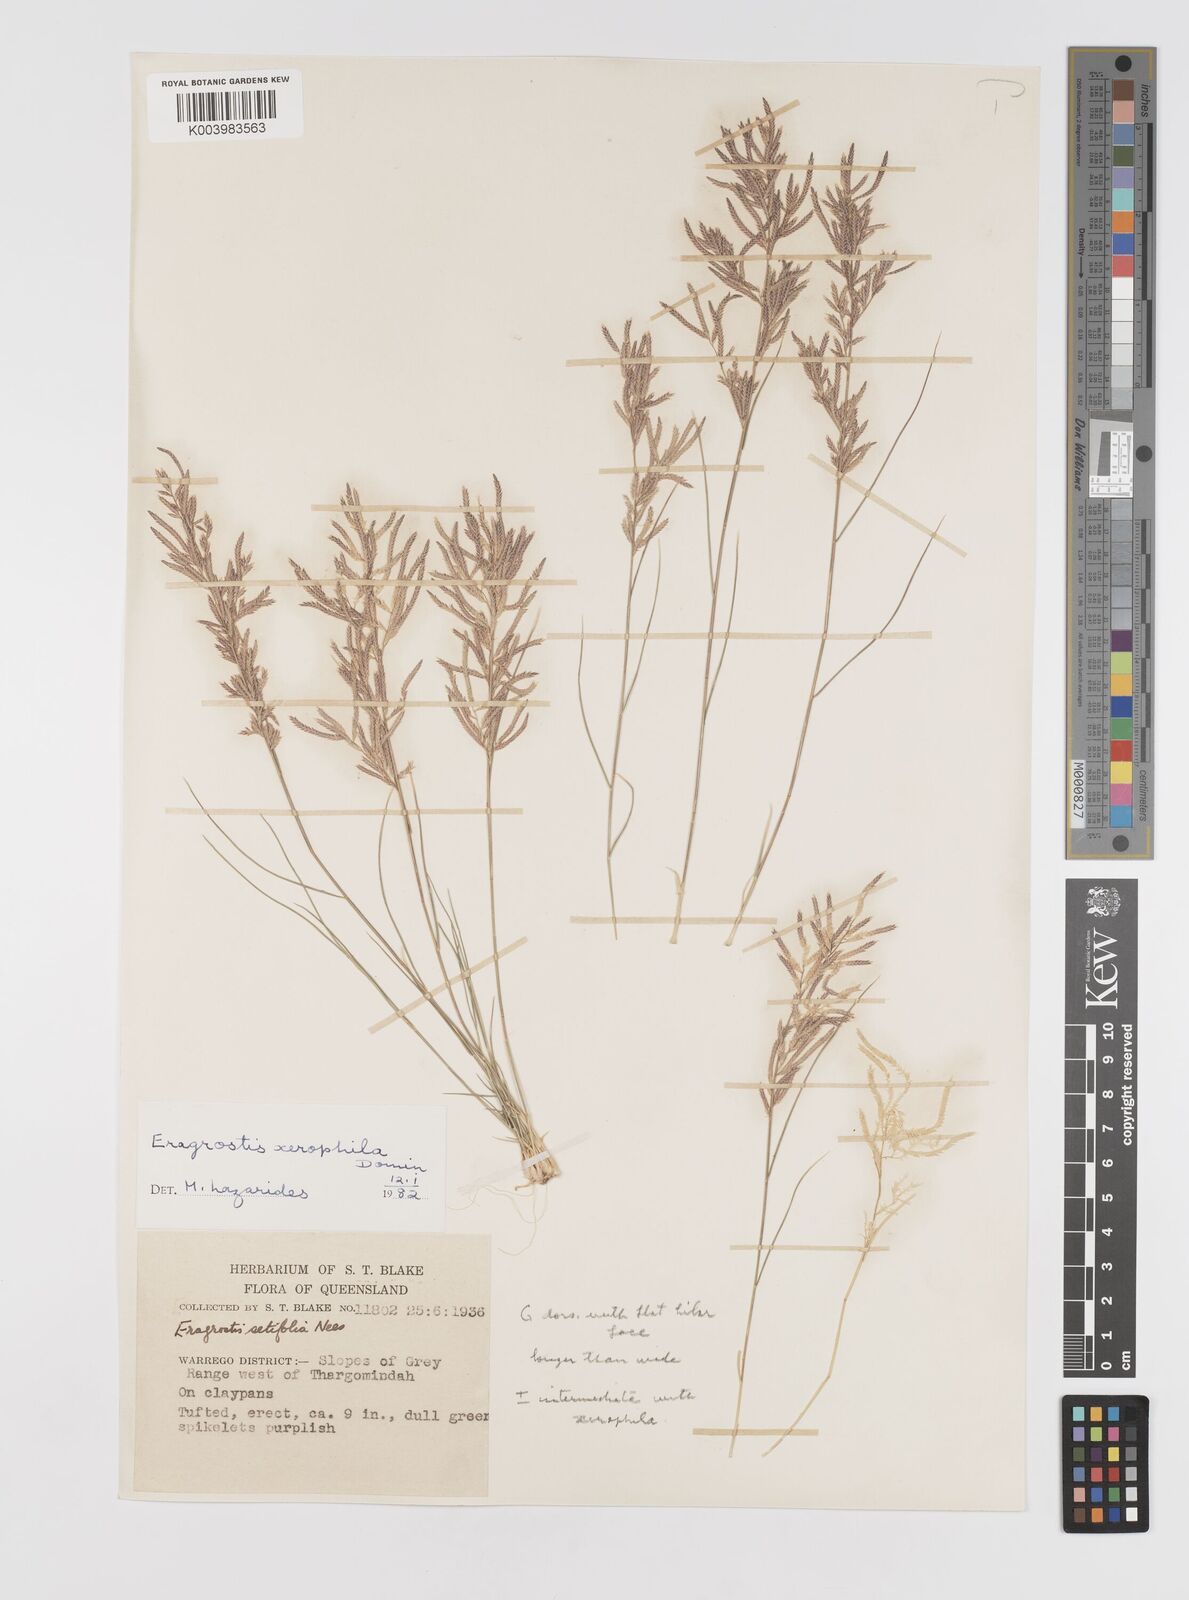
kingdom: Plantae
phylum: Tracheophyta
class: Liliopsida
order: Poales
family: Poaceae
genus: Eragrostis
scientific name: Eragrostis xerophila
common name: Wire wandarrie grass
